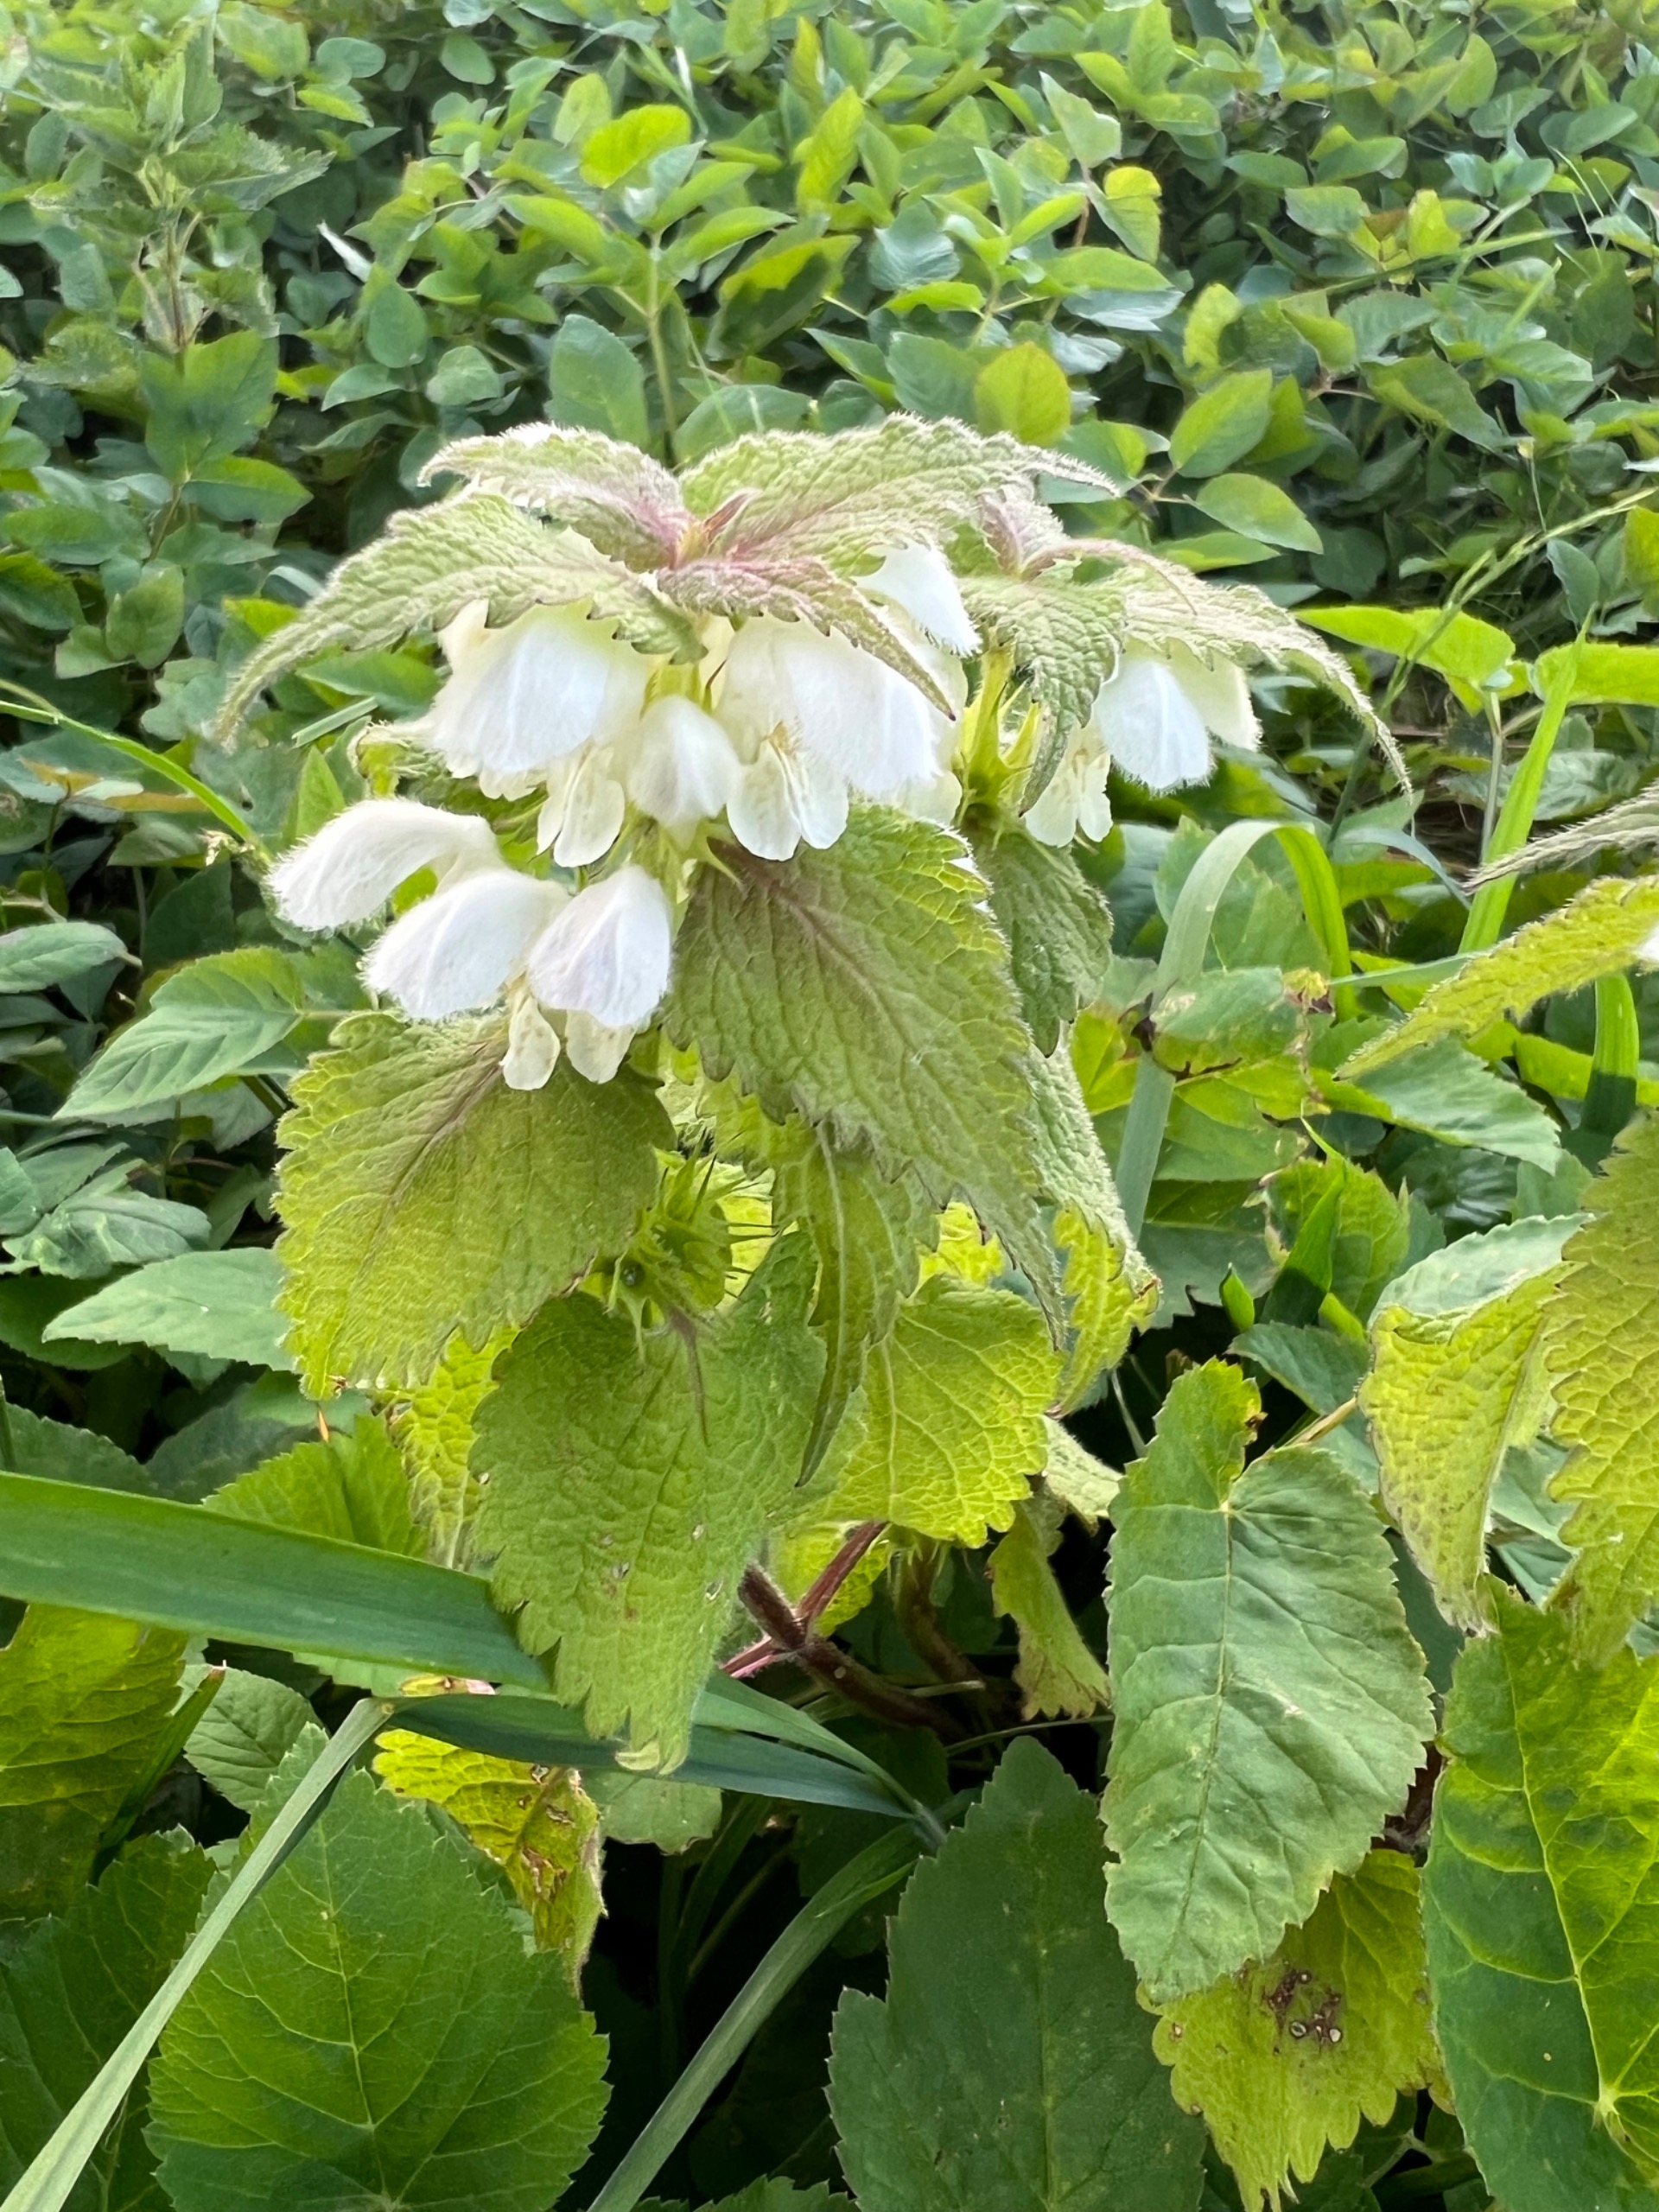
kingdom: Plantae
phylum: Tracheophyta
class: Magnoliopsida
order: Lamiales
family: Lamiaceae
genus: Lamium
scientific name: Lamium album
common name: Døvnælde
